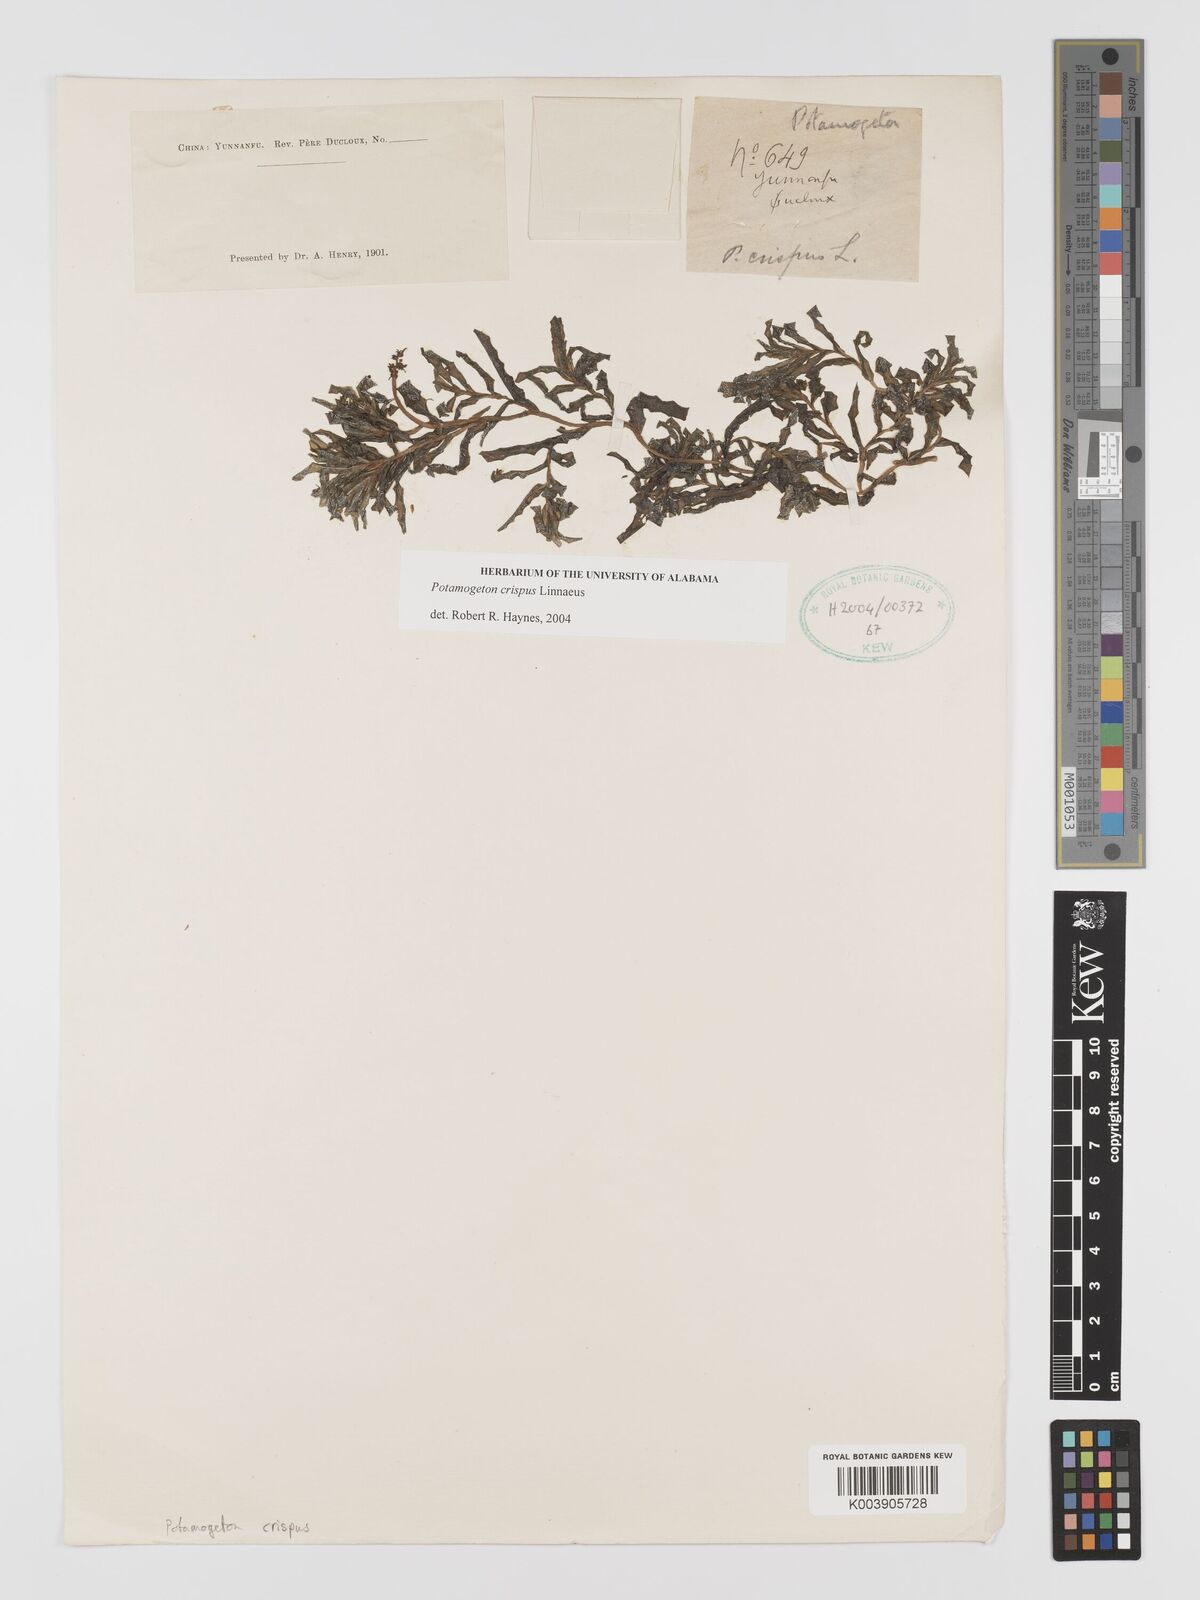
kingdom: Plantae
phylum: Tracheophyta
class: Liliopsida
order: Alismatales
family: Potamogetonaceae
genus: Potamogeton
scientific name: Potamogeton crispus
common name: Curled pondweed
